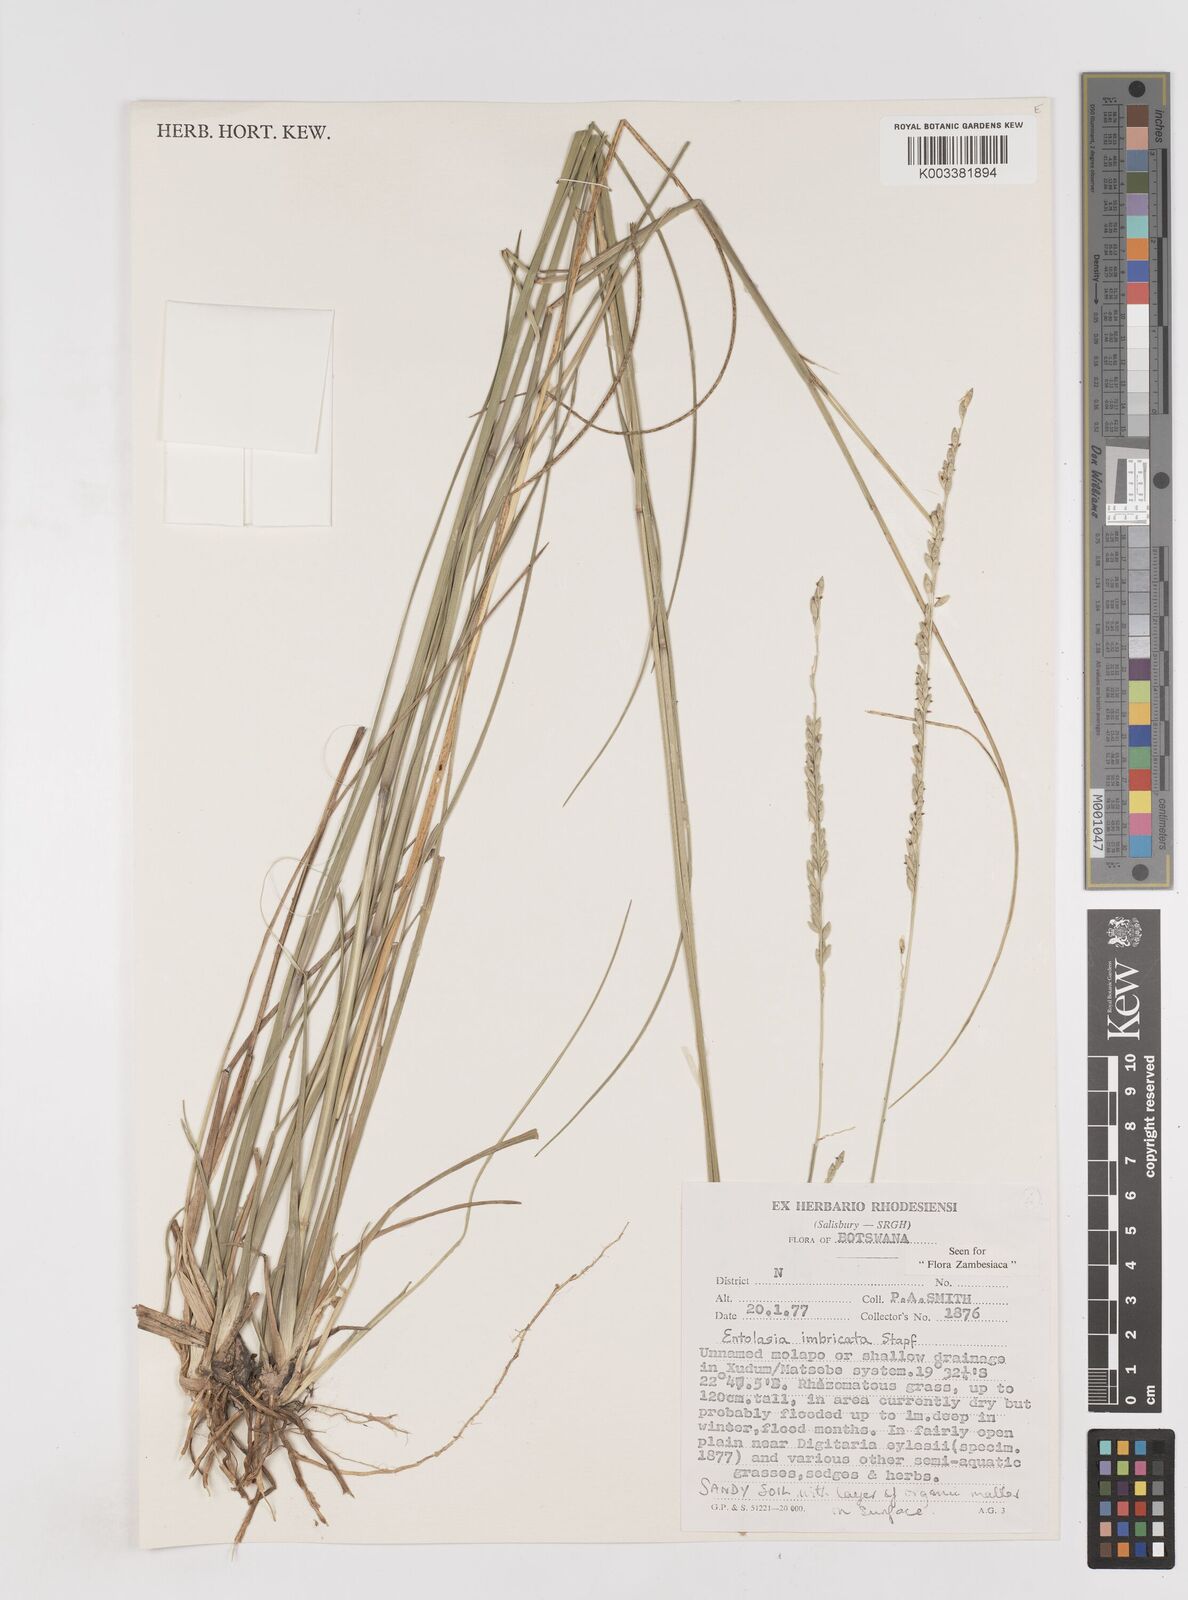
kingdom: Plantae
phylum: Tracheophyta
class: Liliopsida
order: Poales
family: Poaceae
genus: Entolasia
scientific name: Entolasia imbricata
